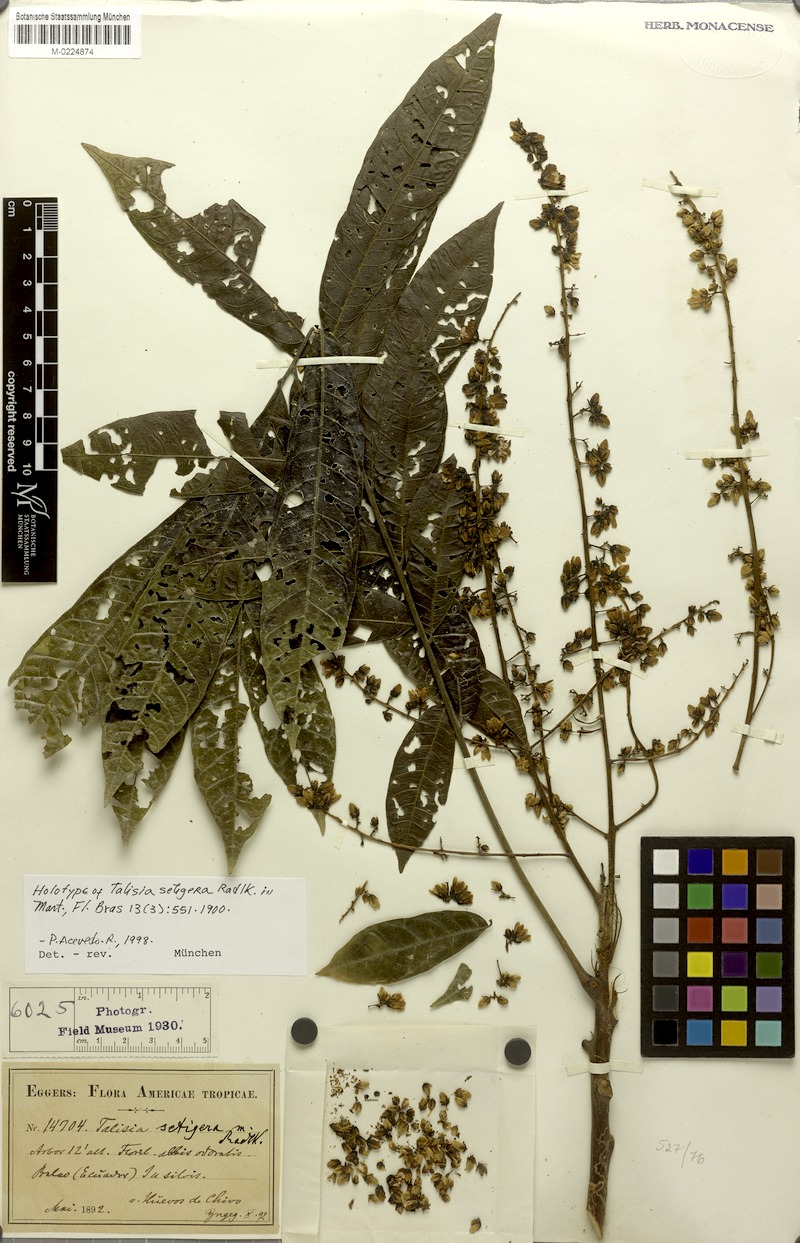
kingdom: Plantae
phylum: Tracheophyta
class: Magnoliopsida
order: Sapindales
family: Sapindaceae
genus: Talisia
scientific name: Talisia setigera
